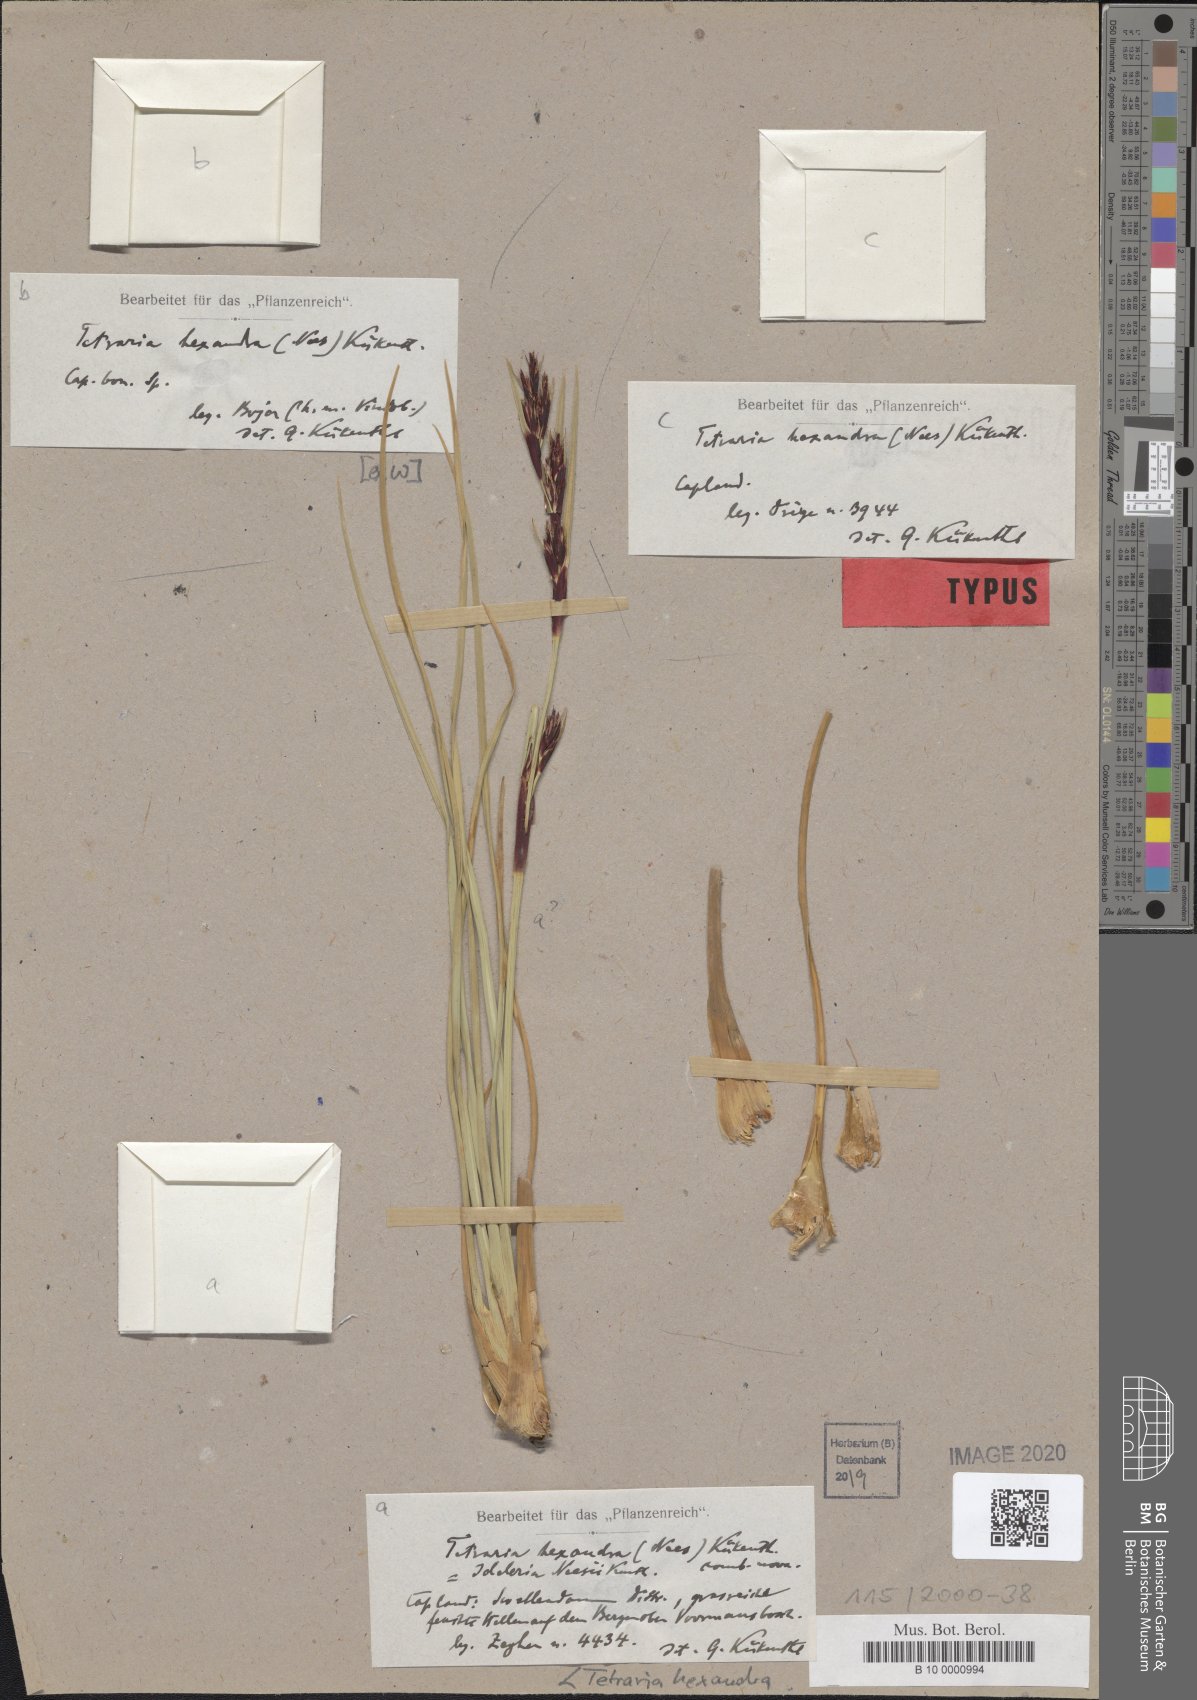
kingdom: Plantae
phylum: Tracheophyta
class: Liliopsida
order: Poales
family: Cyperaceae
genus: Cyathocoma
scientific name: Cyathocoma hexandra
